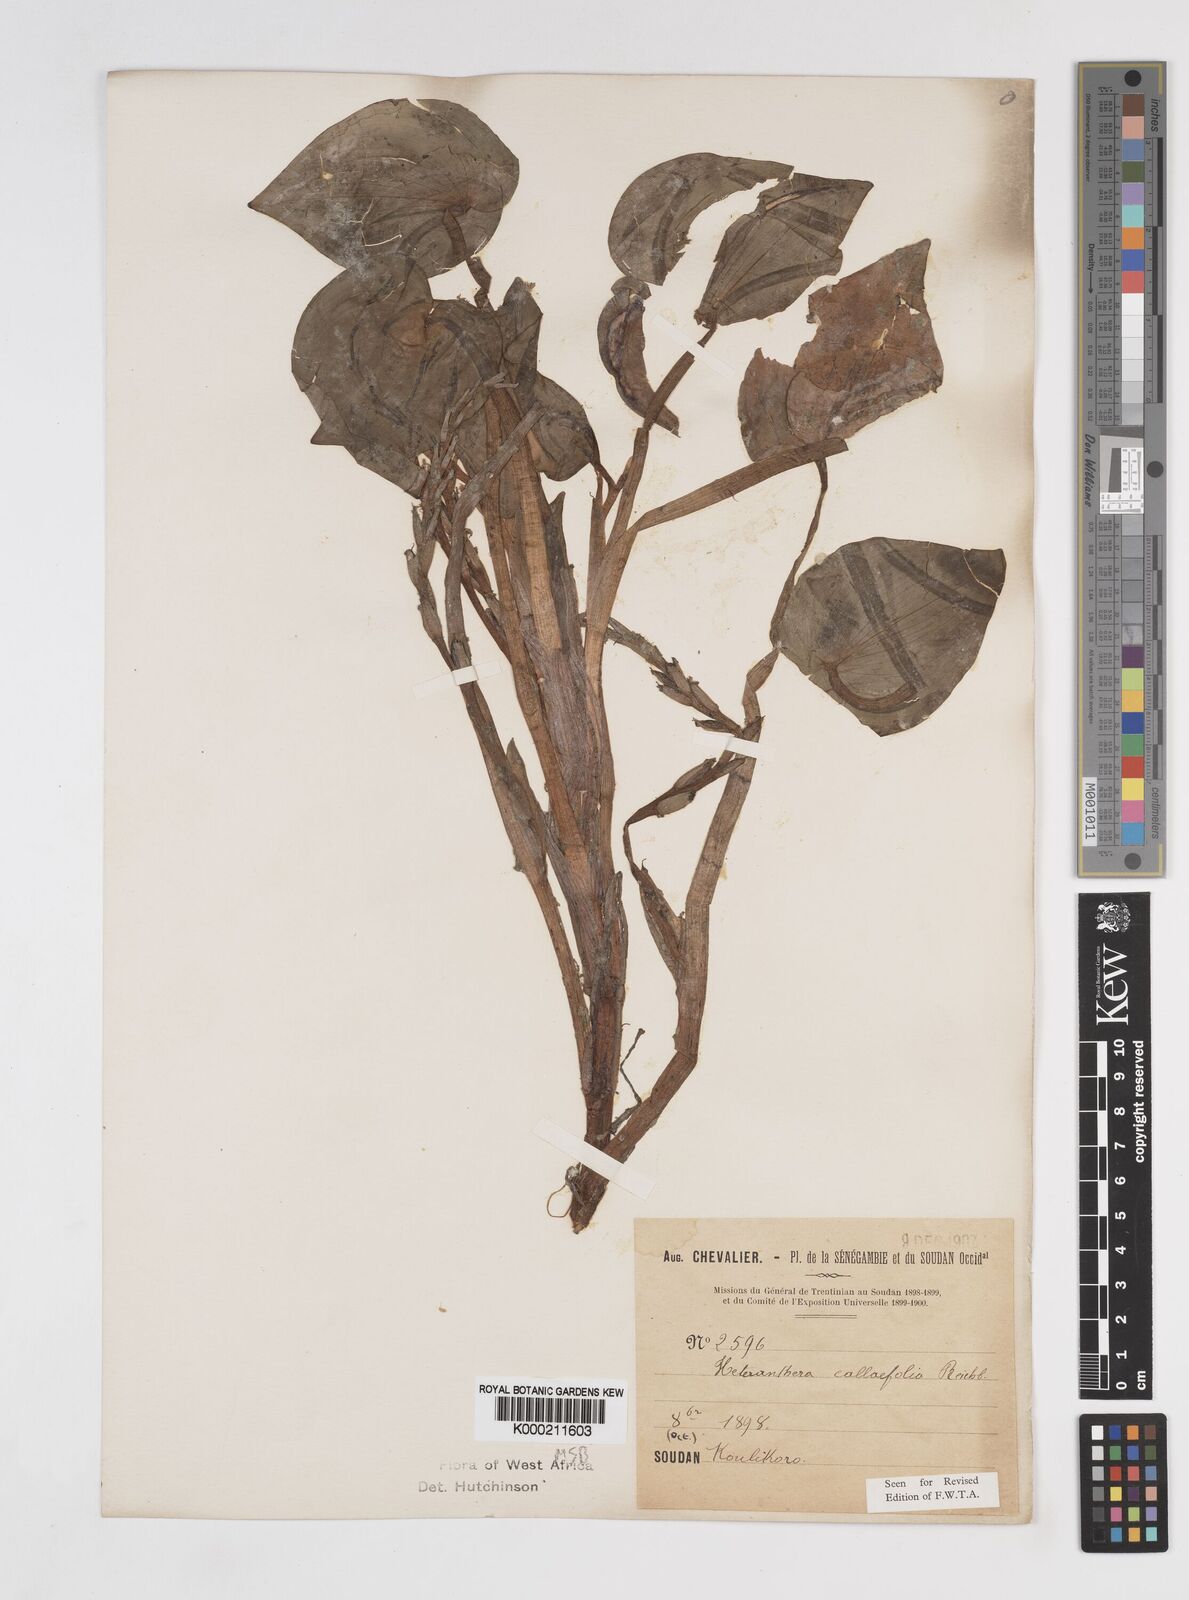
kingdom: Plantae
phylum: Tracheophyta
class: Liliopsida
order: Commelinales
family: Pontederiaceae
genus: Heteranthera
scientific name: Heteranthera callifolia
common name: Mud plantain
